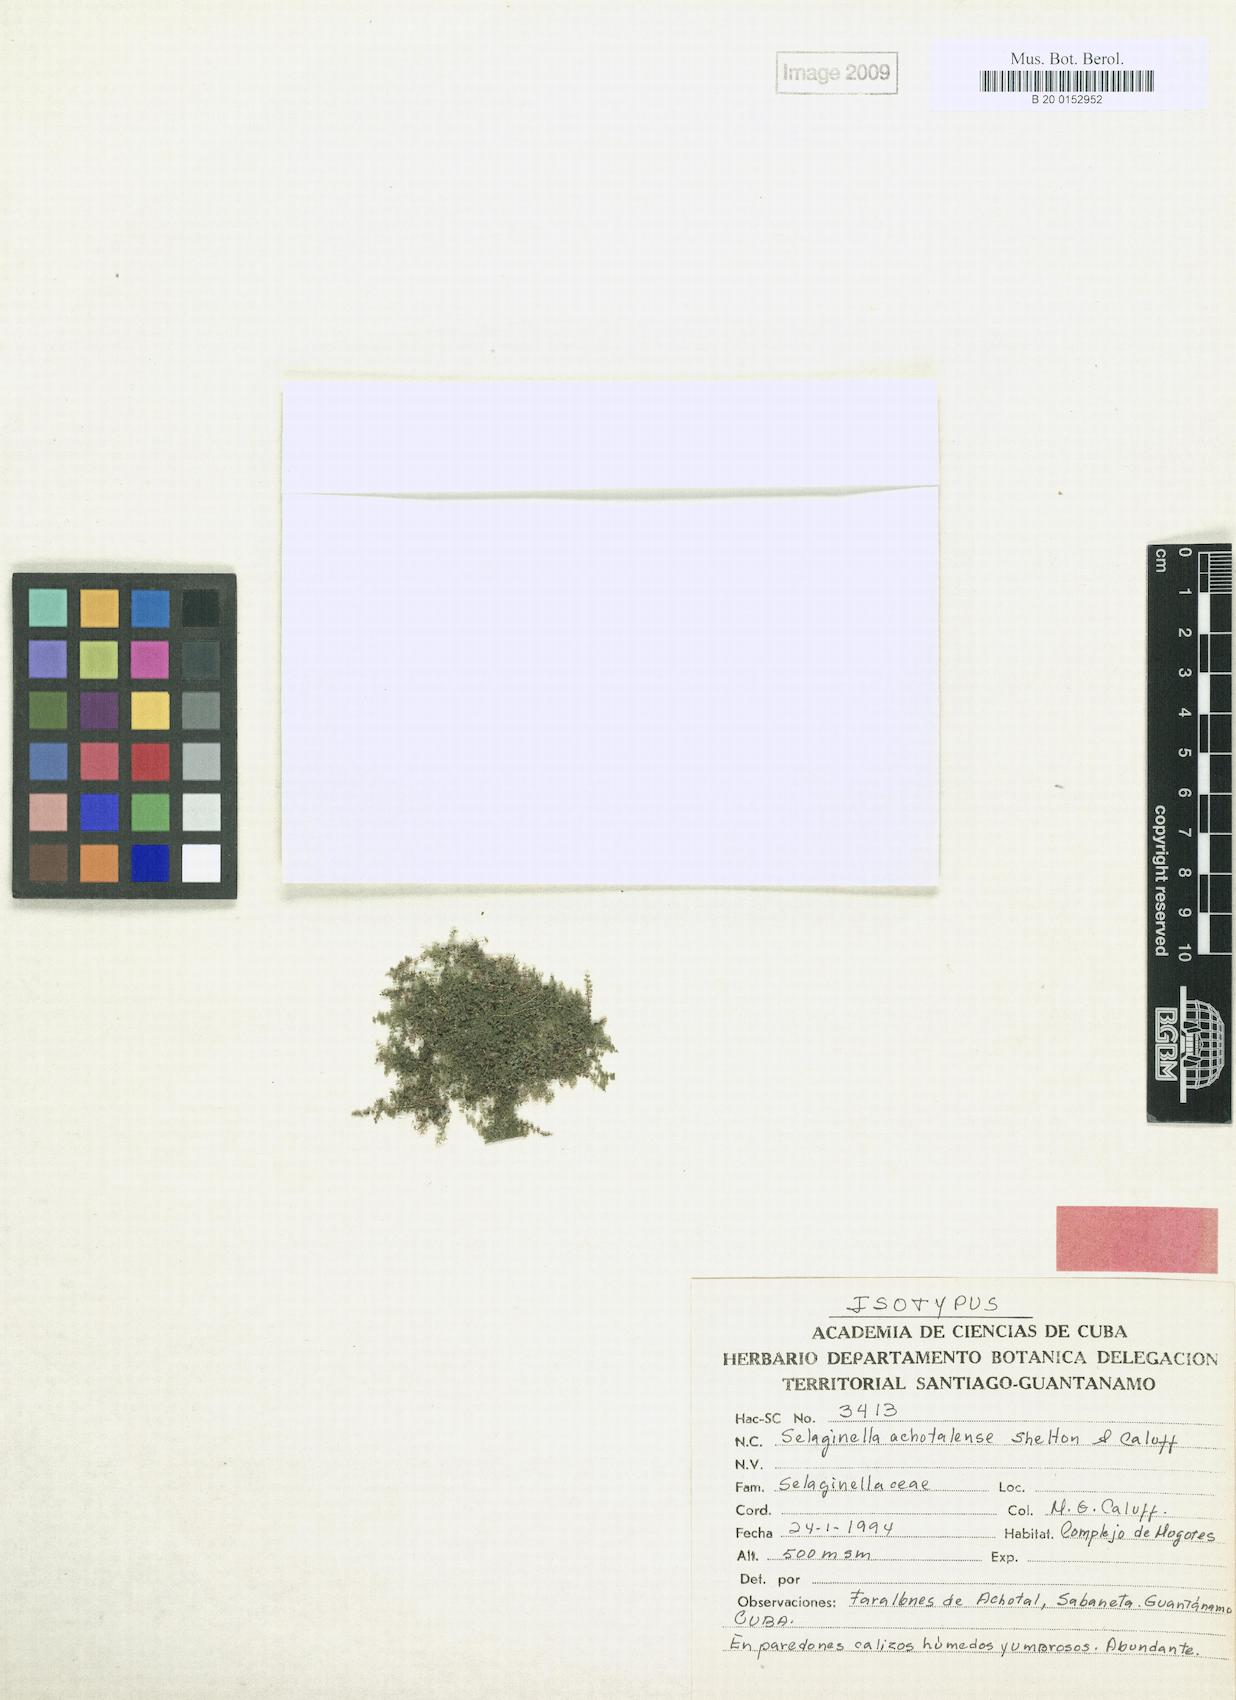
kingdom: Plantae
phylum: Tracheophyta
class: Lycopodiopsida
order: Selaginellales
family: Selaginellaceae
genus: Selaginella
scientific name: Selaginella achotalensis
